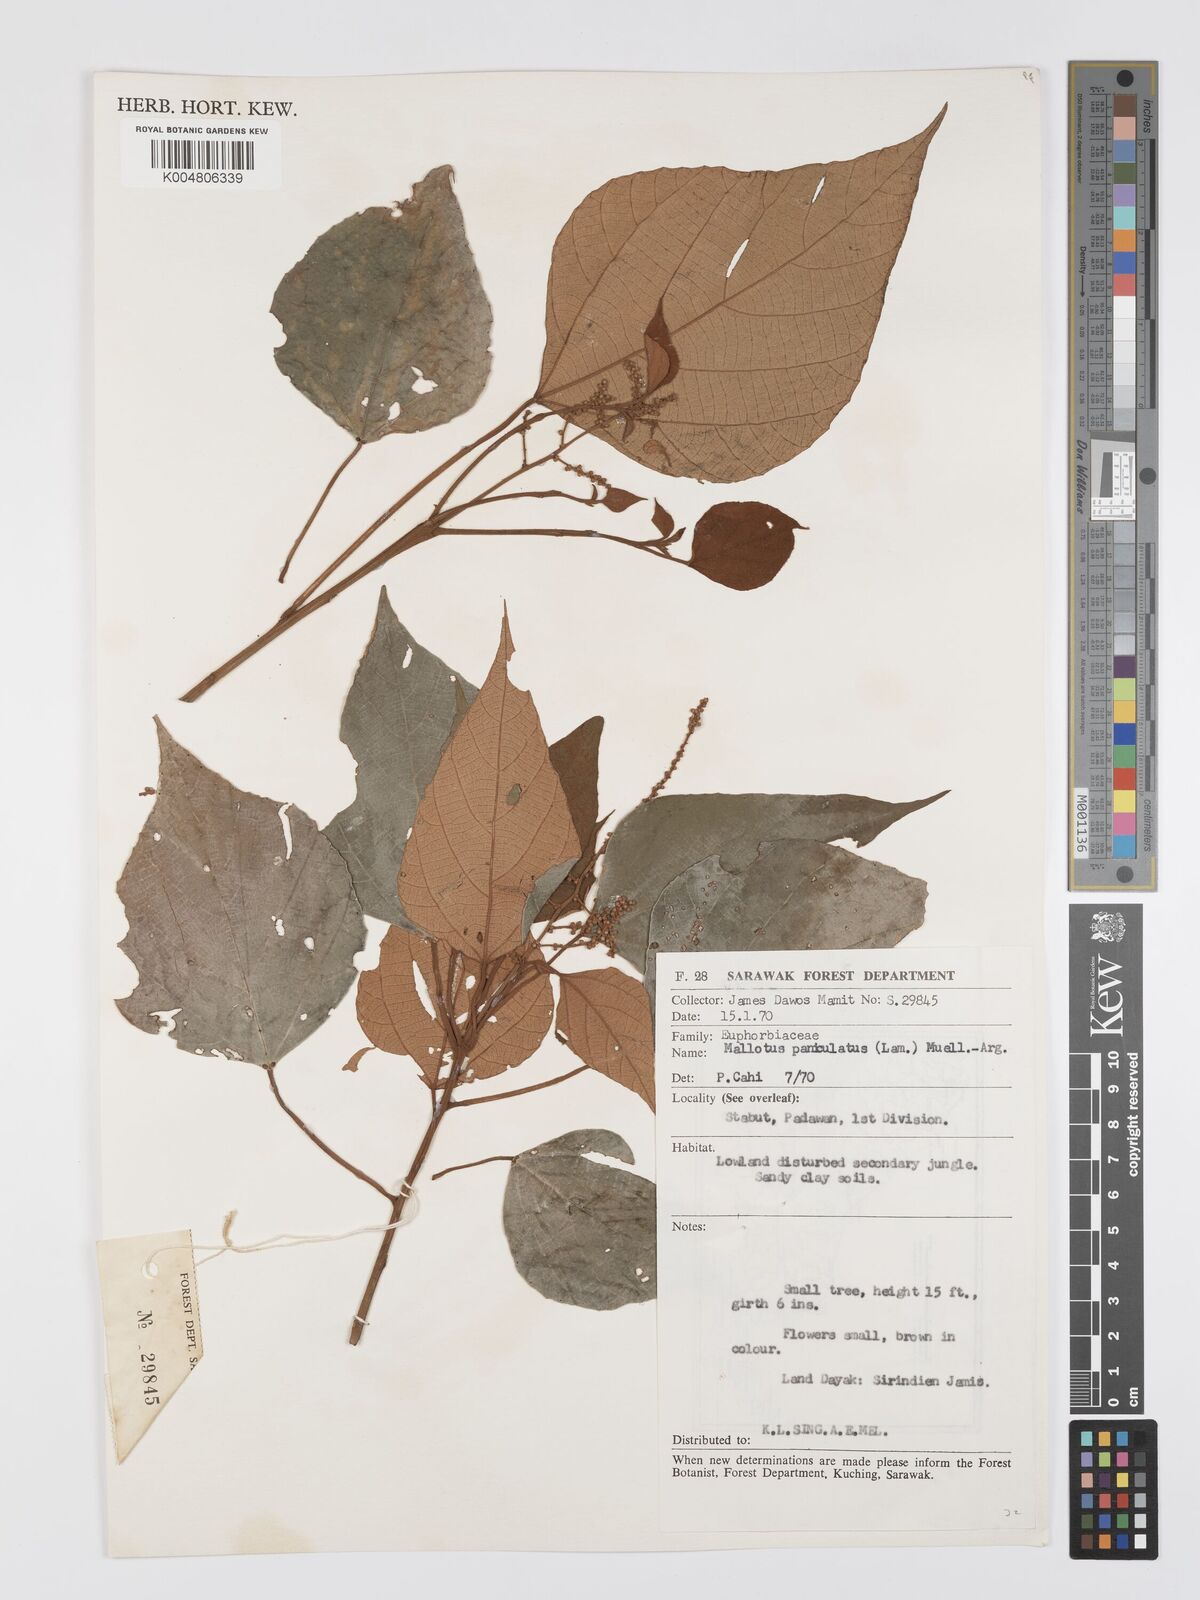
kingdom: Plantae
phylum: Tracheophyta
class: Magnoliopsida
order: Malpighiales
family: Euphorbiaceae
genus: Mallotus
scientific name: Mallotus paniculatus
